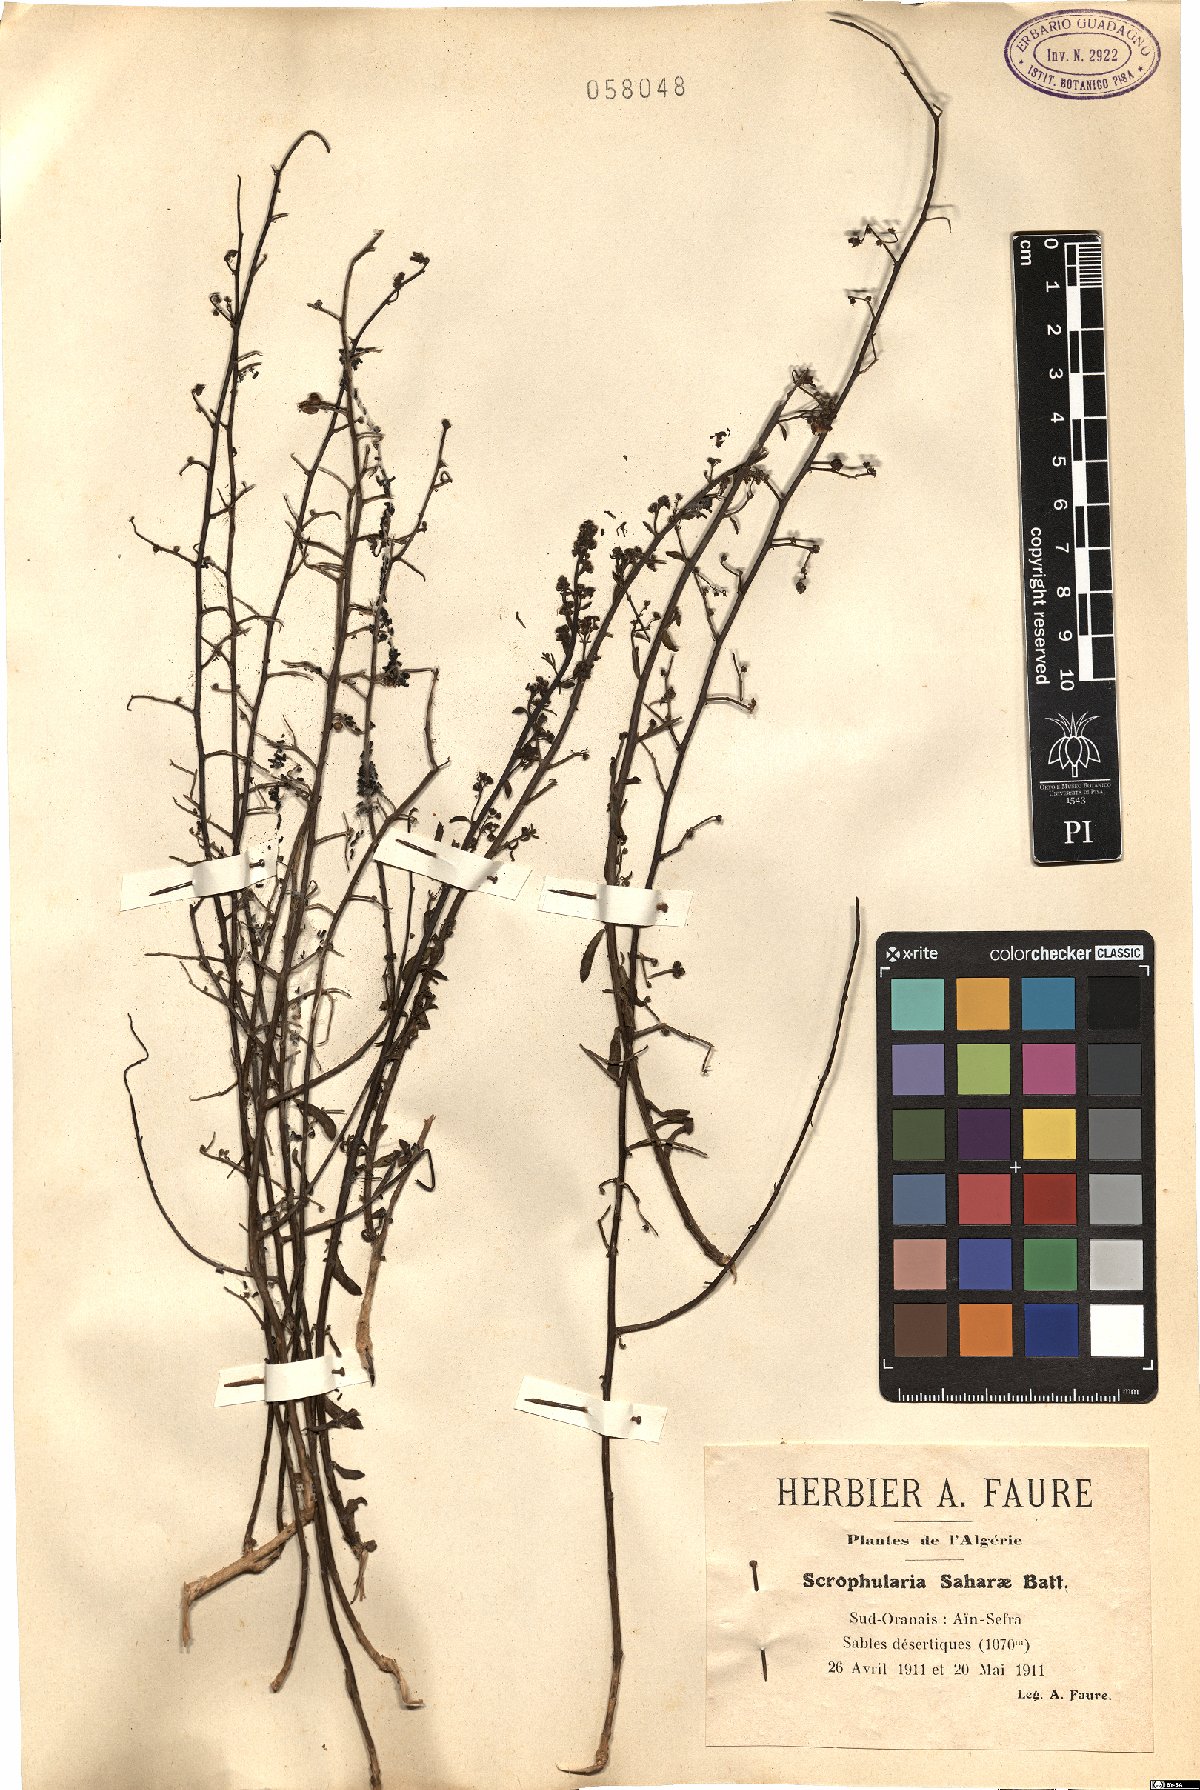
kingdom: Plantae
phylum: Tracheophyta
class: Magnoliopsida
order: Lamiales
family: Scrophulariaceae
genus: Scrophularia
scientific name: Scrophularia hypericifolia
